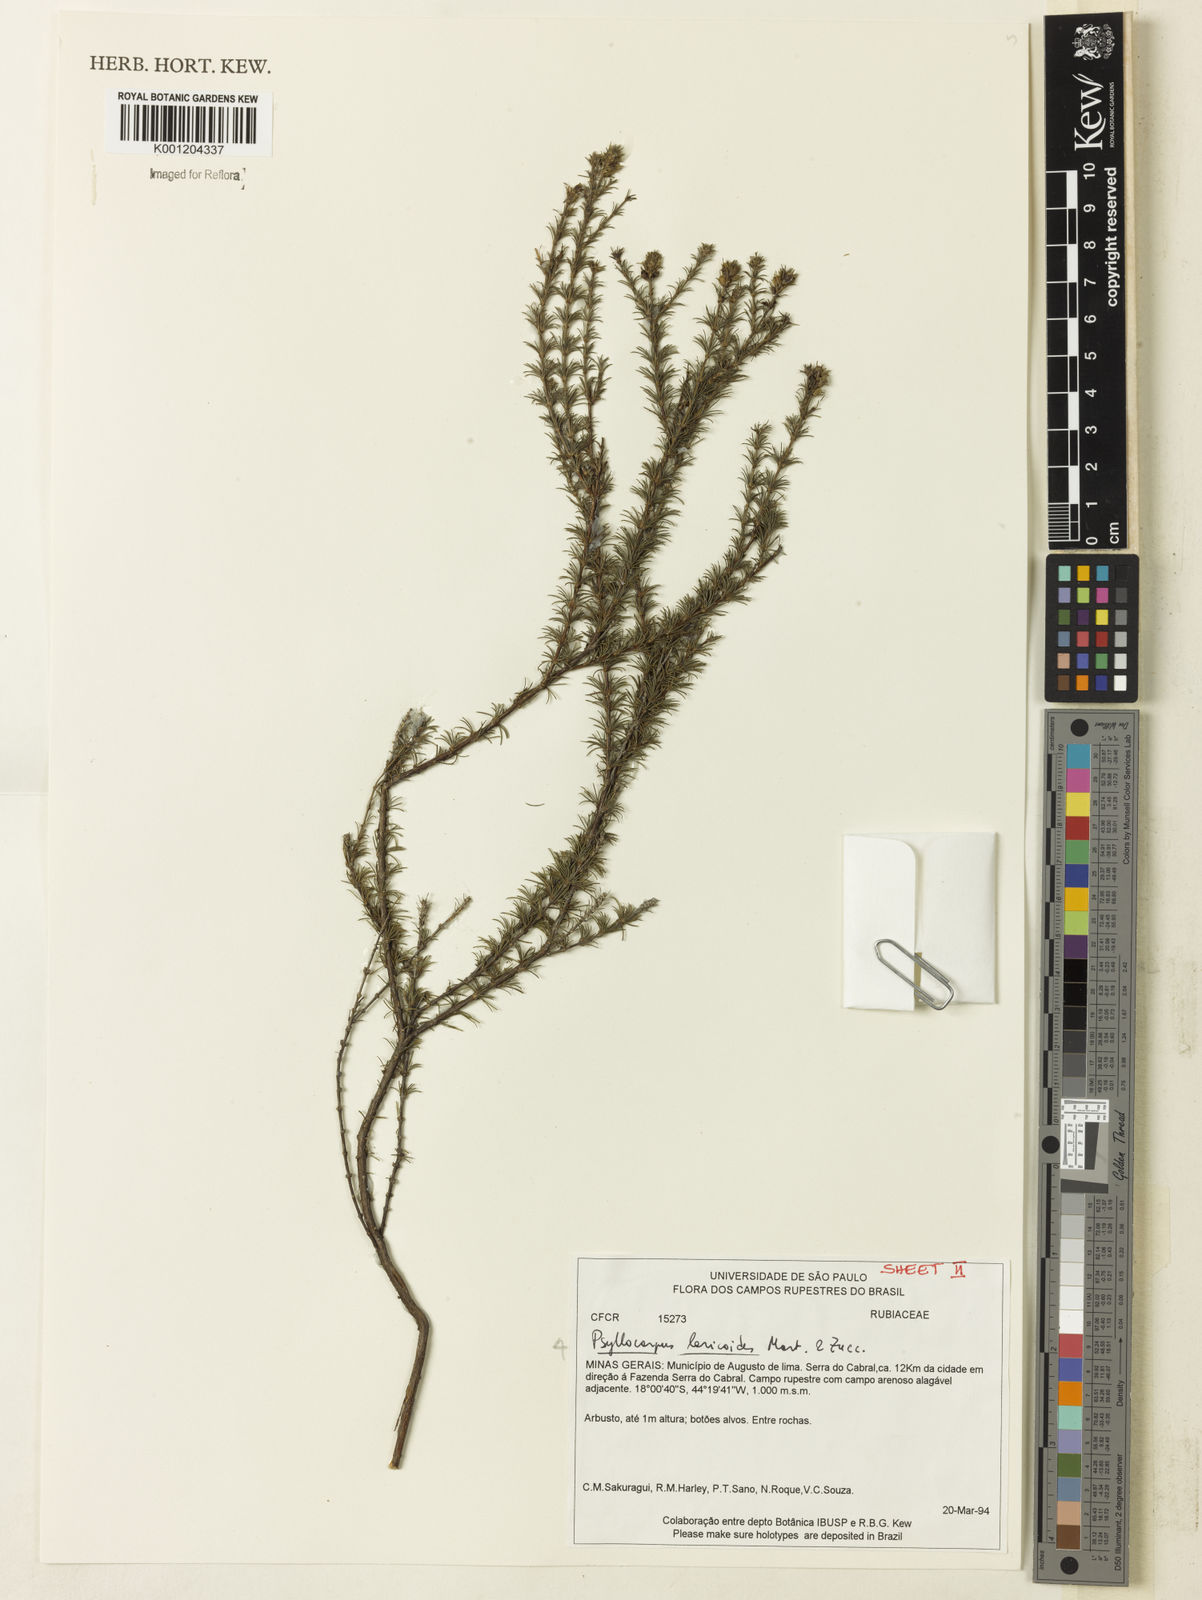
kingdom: Plantae
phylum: Tracheophyta
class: Magnoliopsida
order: Gentianales
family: Rubiaceae
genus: Psyllocarpus
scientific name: Psyllocarpus laricoides
